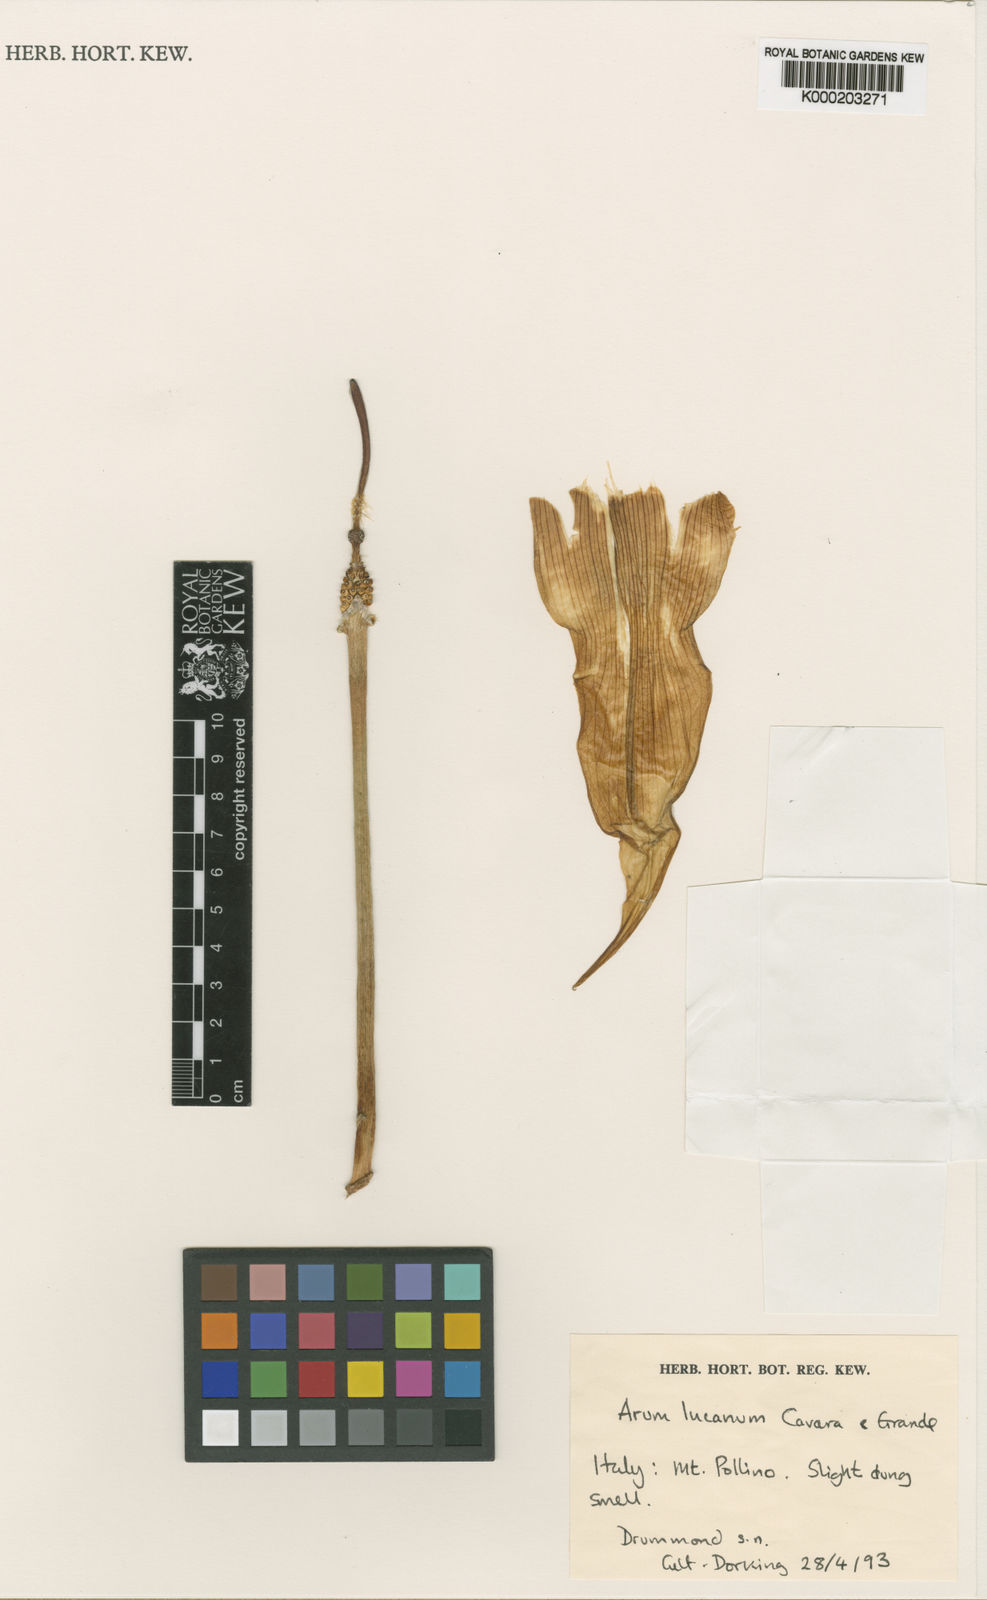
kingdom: Plantae
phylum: Tracheophyta
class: Liliopsida
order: Alismatales
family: Araceae
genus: Arum
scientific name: Arum lucanum
